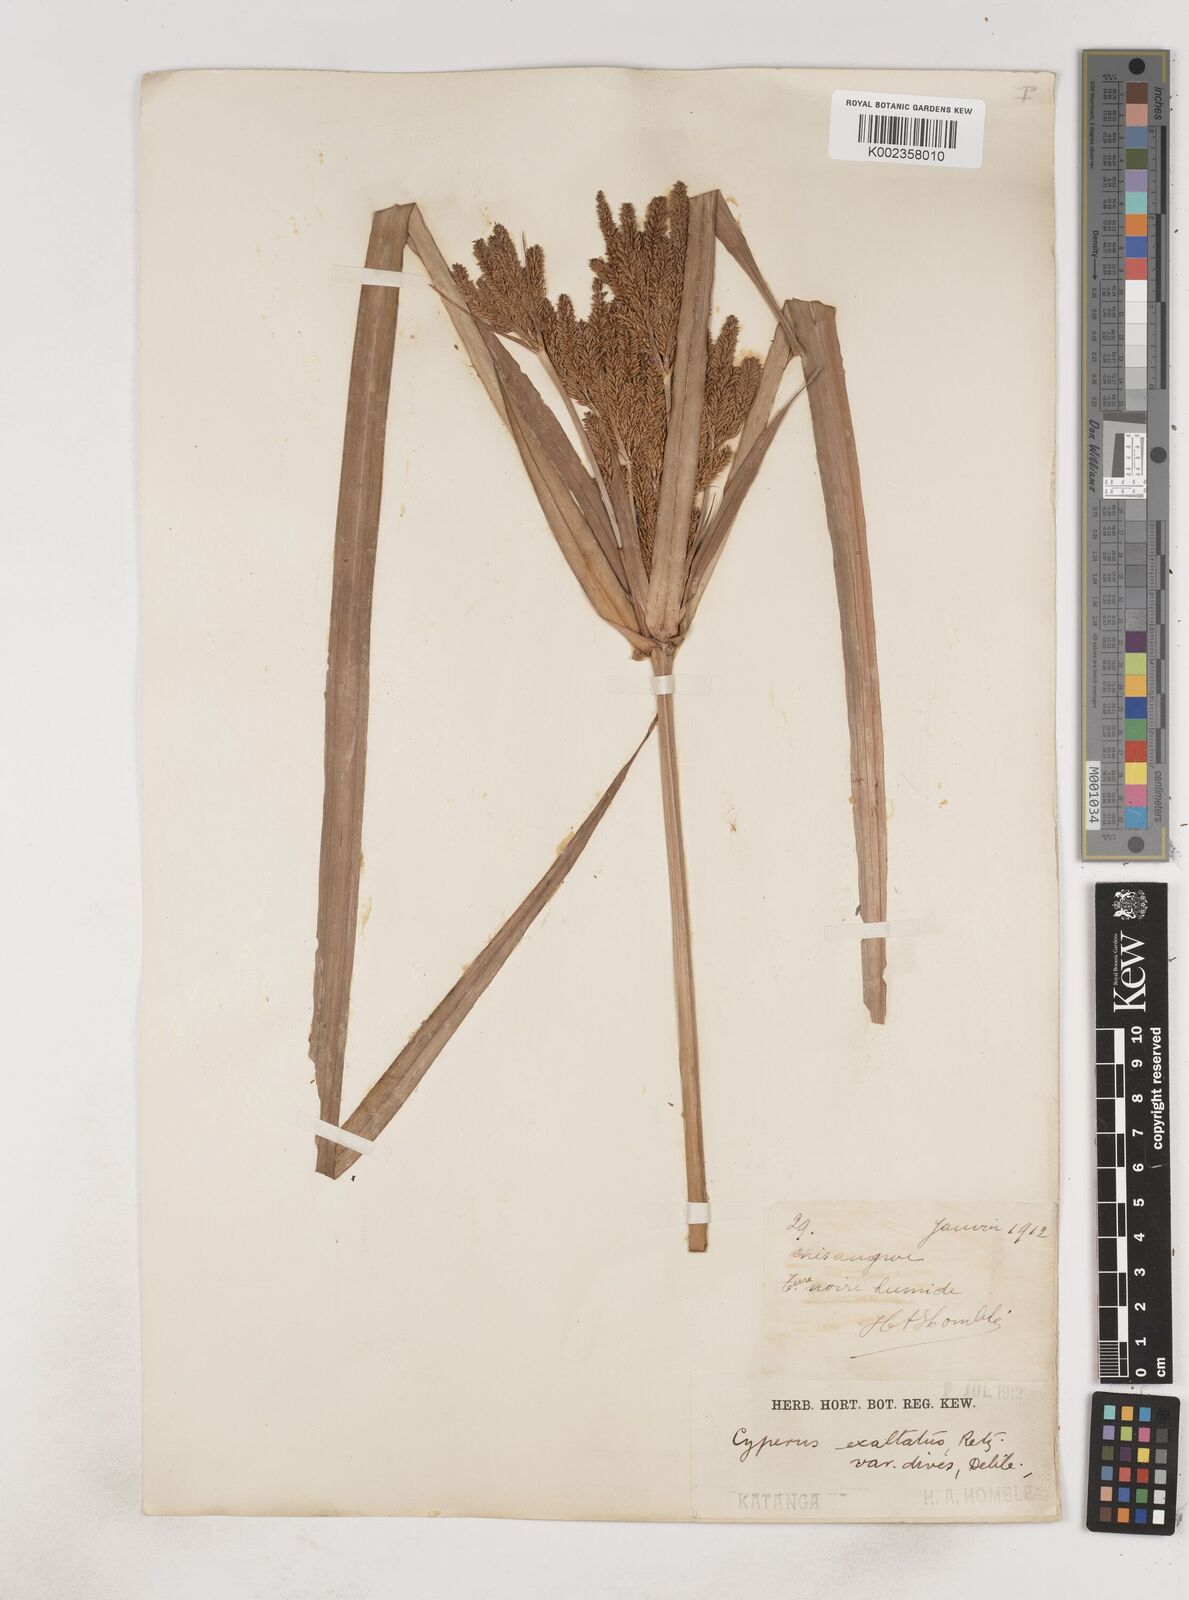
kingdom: Plantae
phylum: Tracheophyta
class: Liliopsida
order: Poales
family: Cyperaceae
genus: Cyperus
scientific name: Cyperus dives
